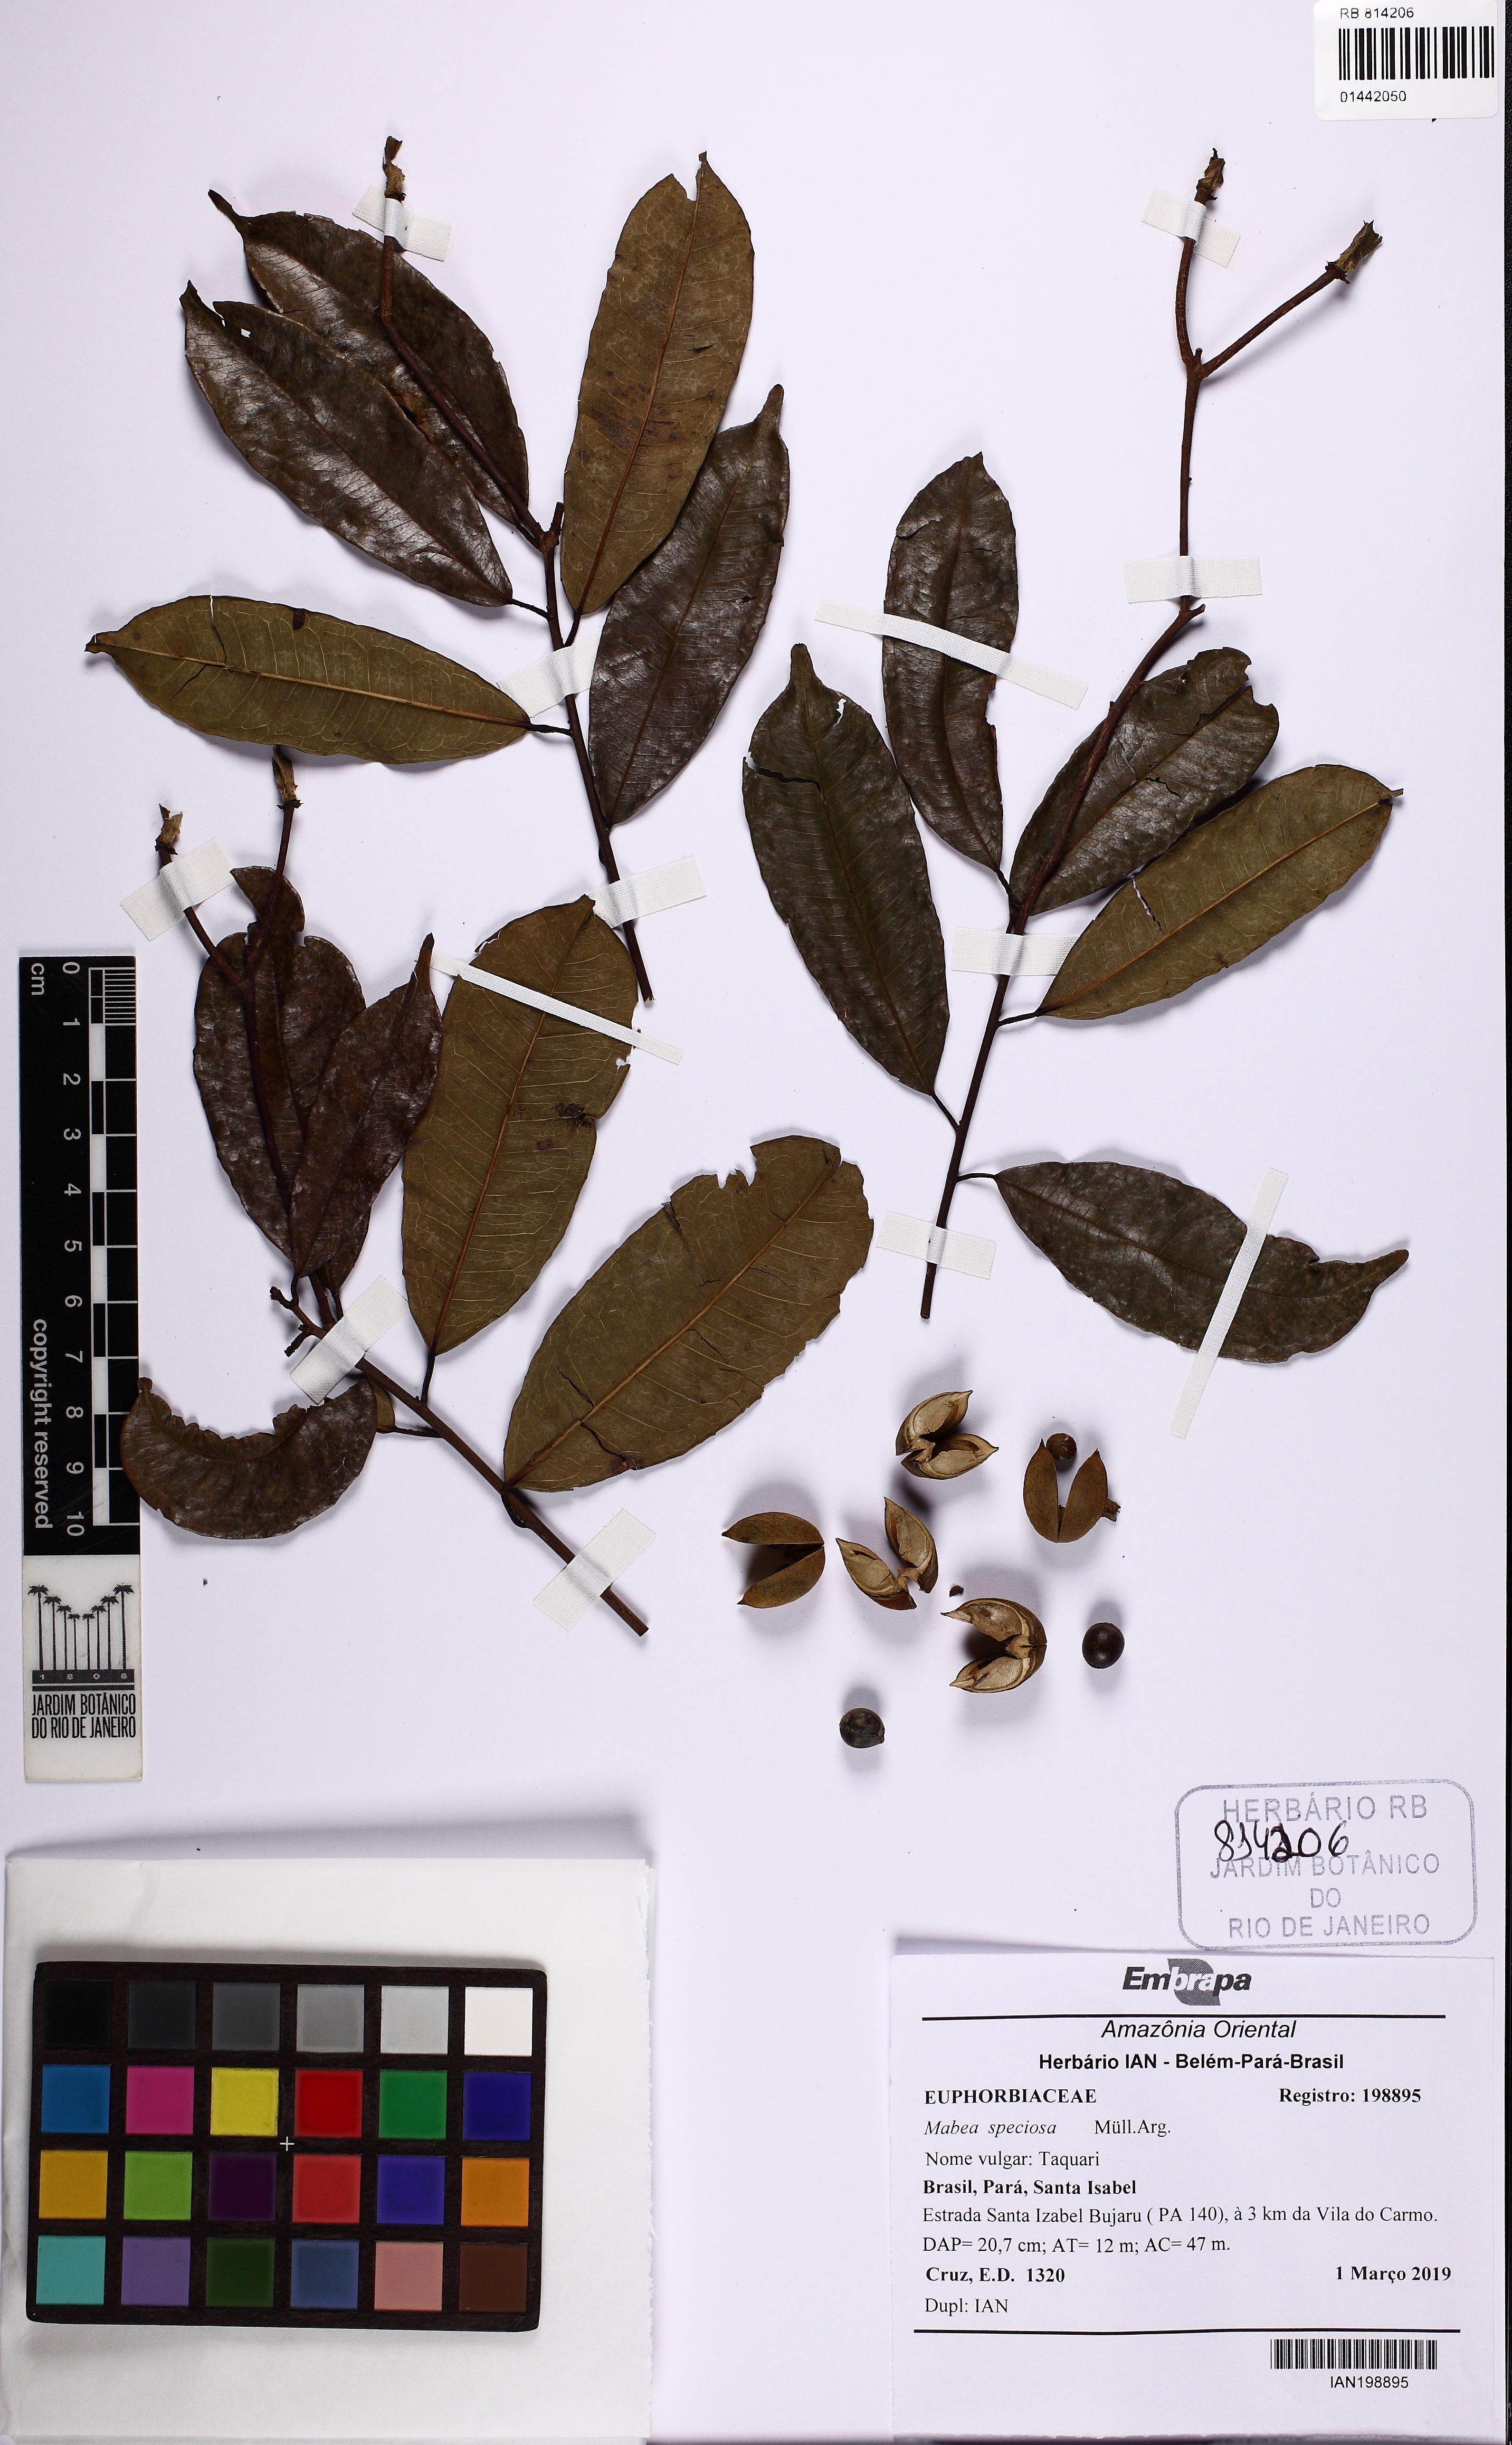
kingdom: Plantae
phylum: Tracheophyta
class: Magnoliopsida
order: Malpighiales
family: Euphorbiaceae
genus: Mabea
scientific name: Mabea speciosa
